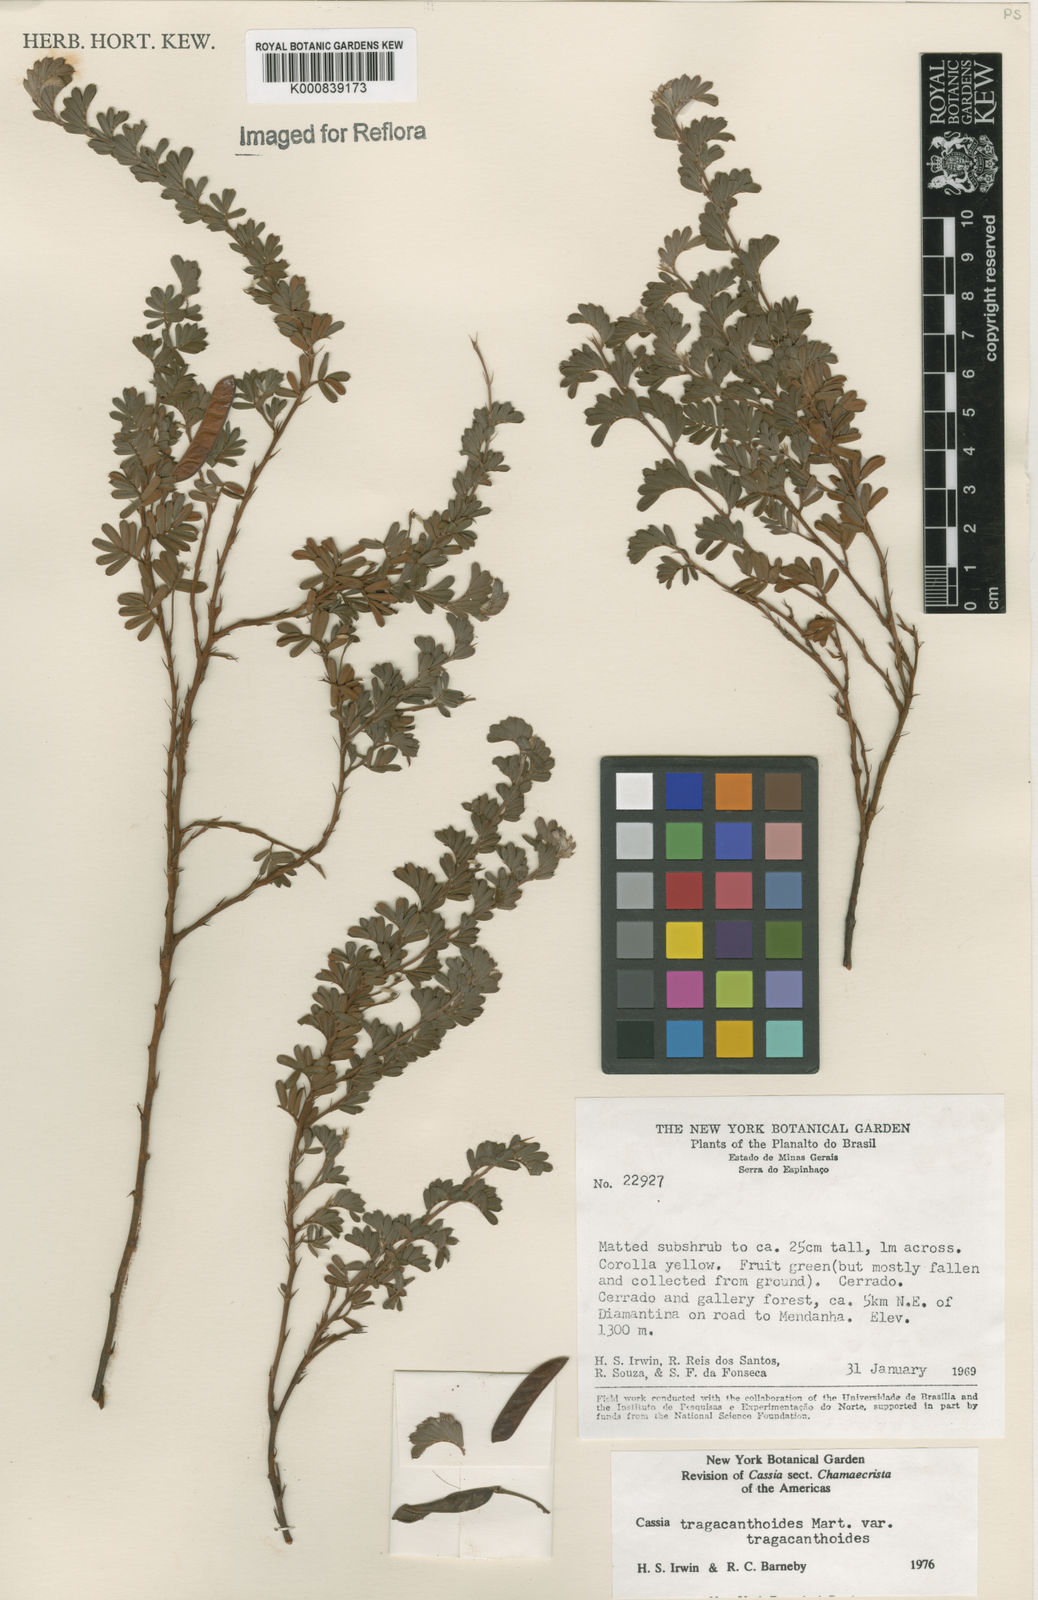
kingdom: Plantae
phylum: Tracheophyta
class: Magnoliopsida
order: Fabales
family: Fabaceae
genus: Chamaecrista
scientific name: Chamaecrista tragacanthoides
